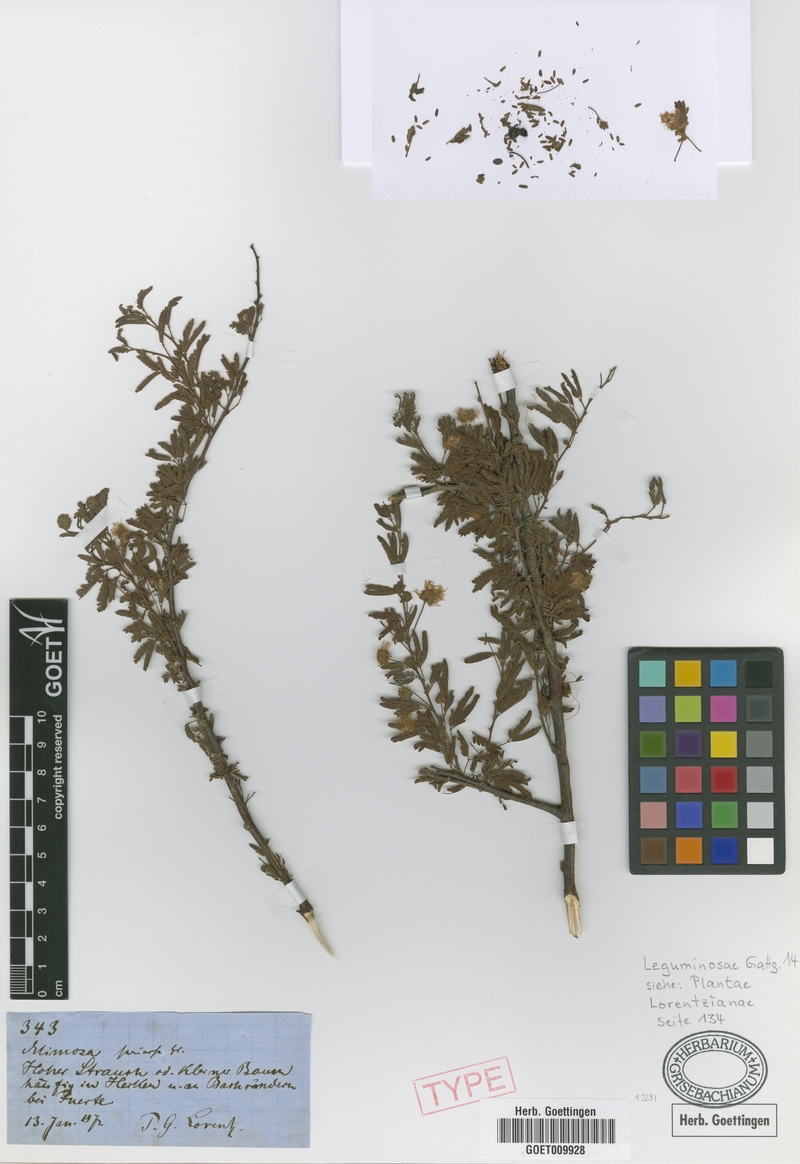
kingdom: Plantae
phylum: Tracheophyta
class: Magnoliopsida
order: Fabales
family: Fabaceae
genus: Mimosa
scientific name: Mimosa farinosa
